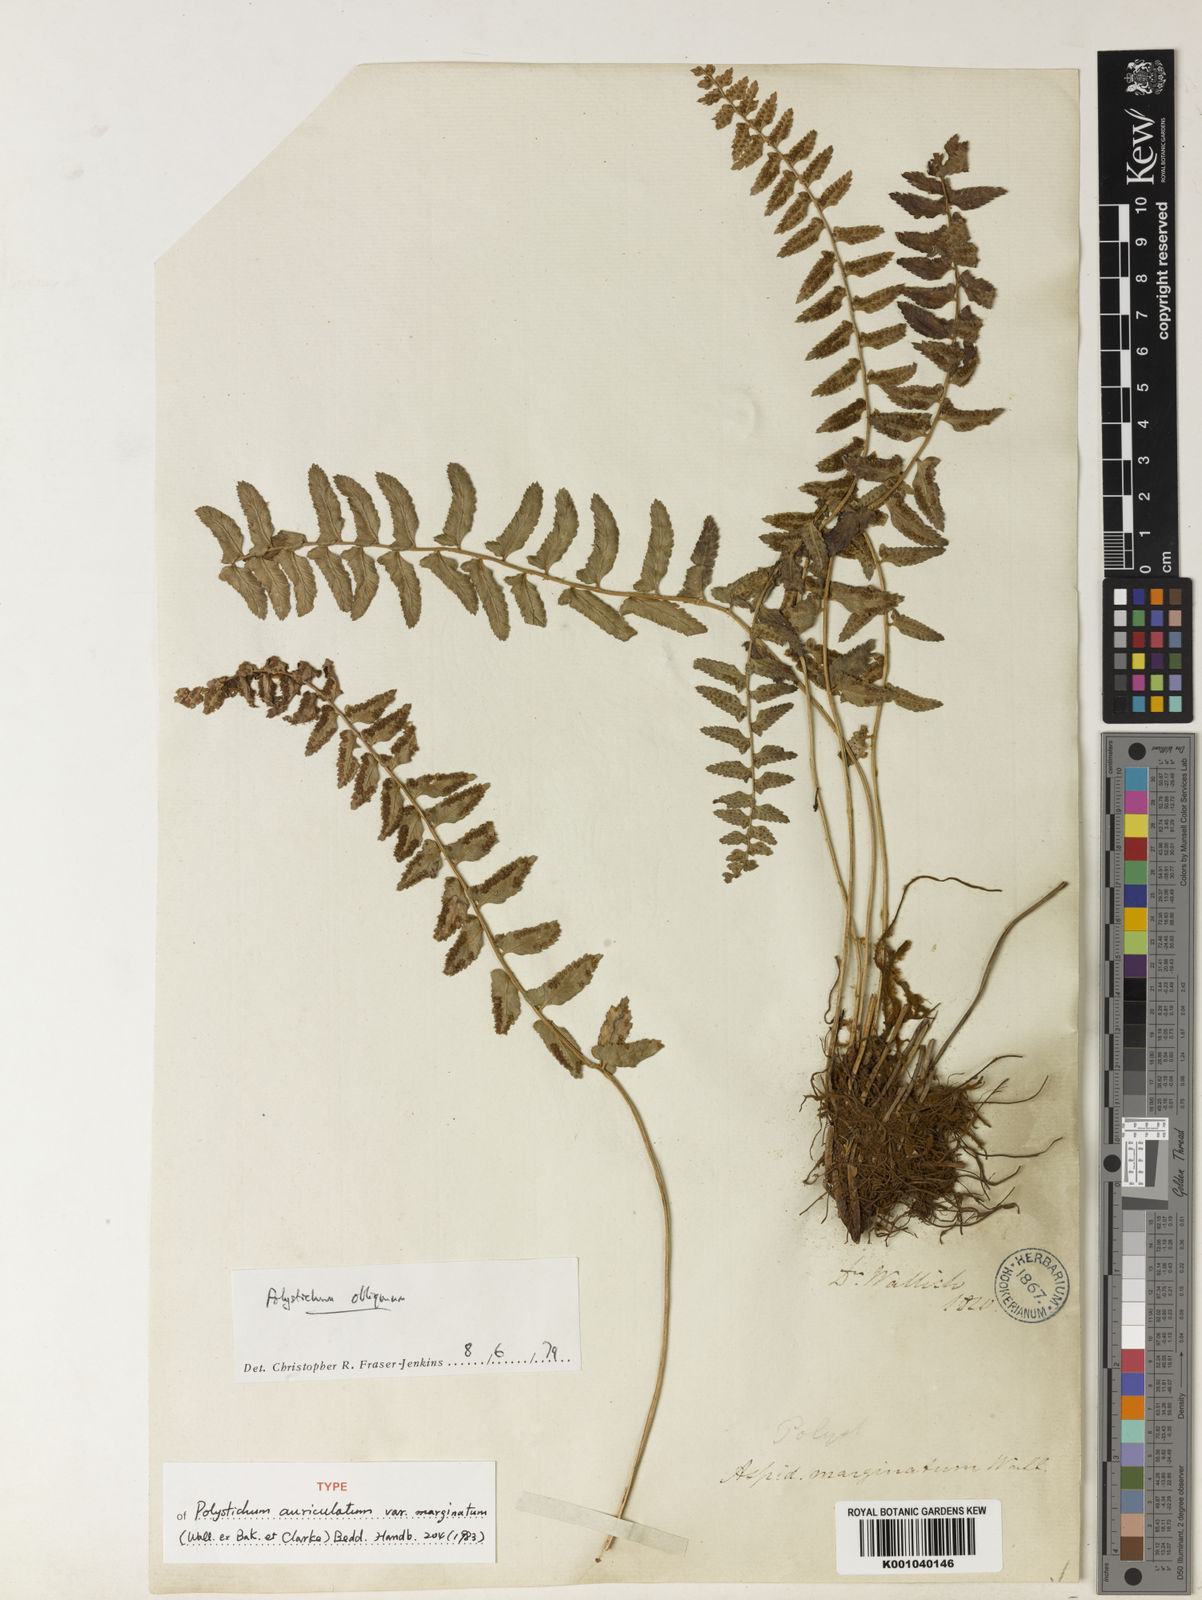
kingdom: Plantae
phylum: Tracheophyta
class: Polypodiopsida
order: Polypodiales
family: Dryopteridaceae
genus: Polystichum
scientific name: Polystichum obliquum
